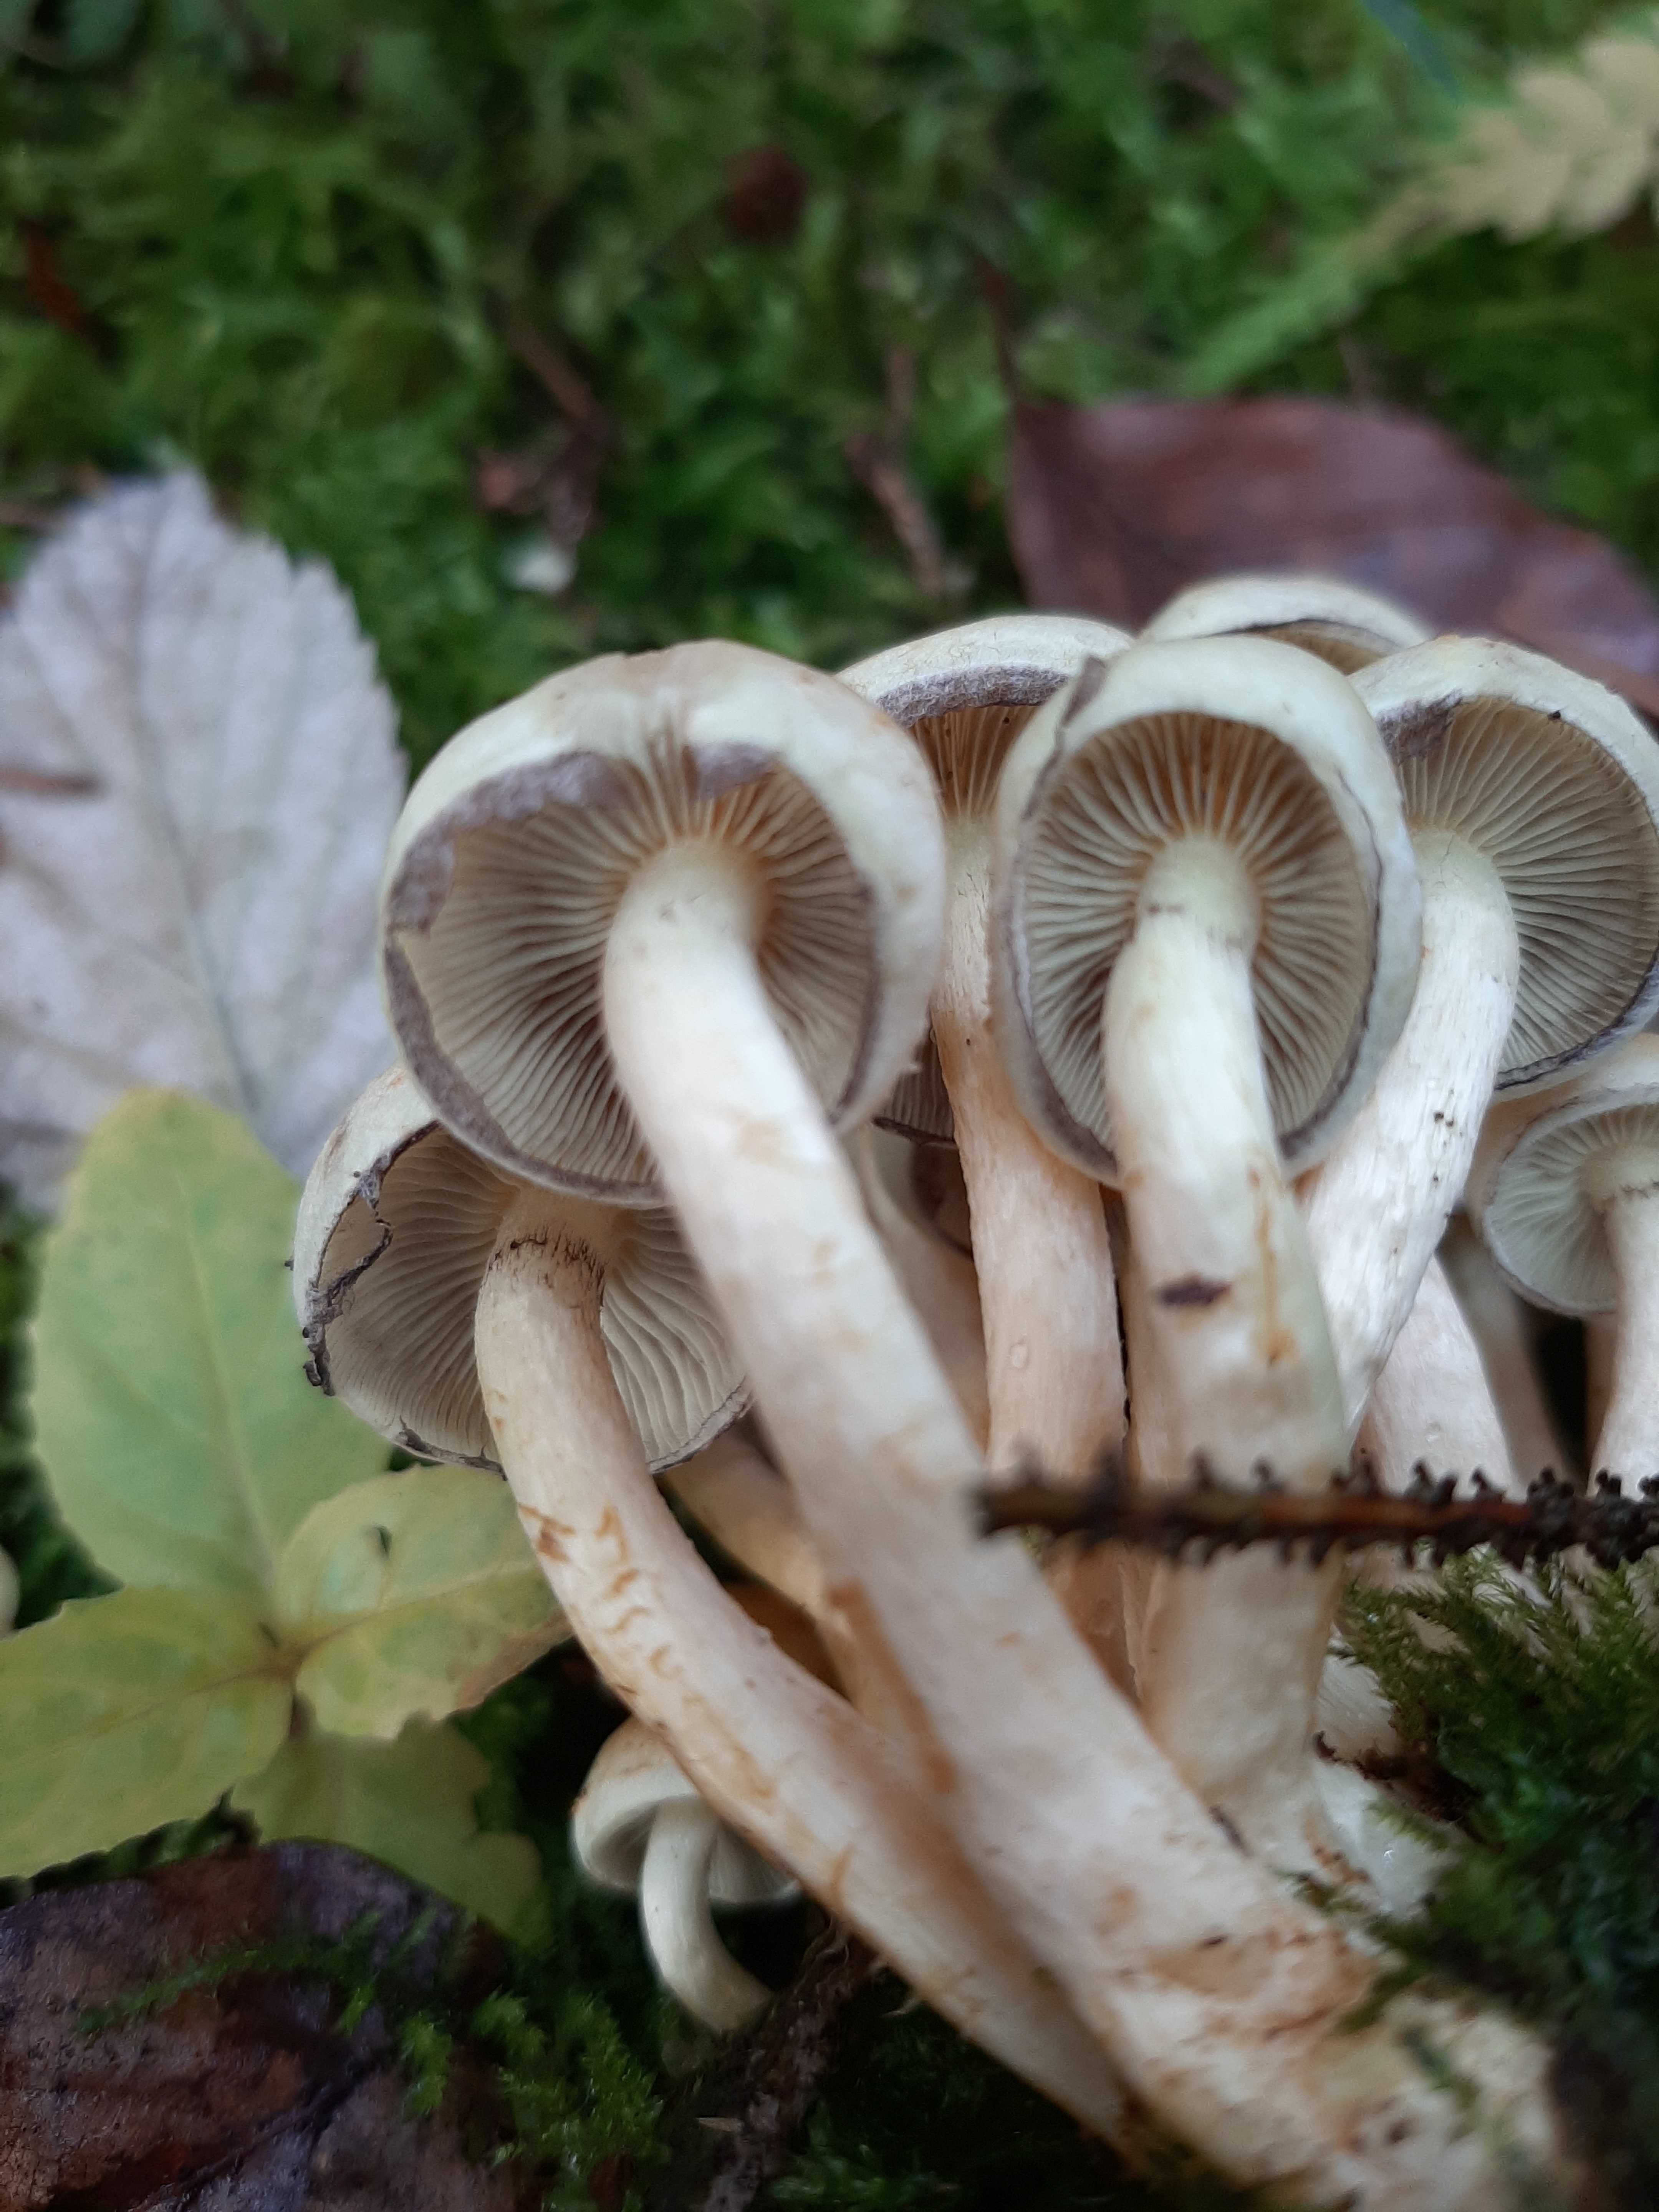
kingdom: Fungi
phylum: Basidiomycota
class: Agaricomycetes
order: Agaricales
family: Strophariaceae
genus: Hypholoma
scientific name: Hypholoma capnoides
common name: gran-svovlhat
